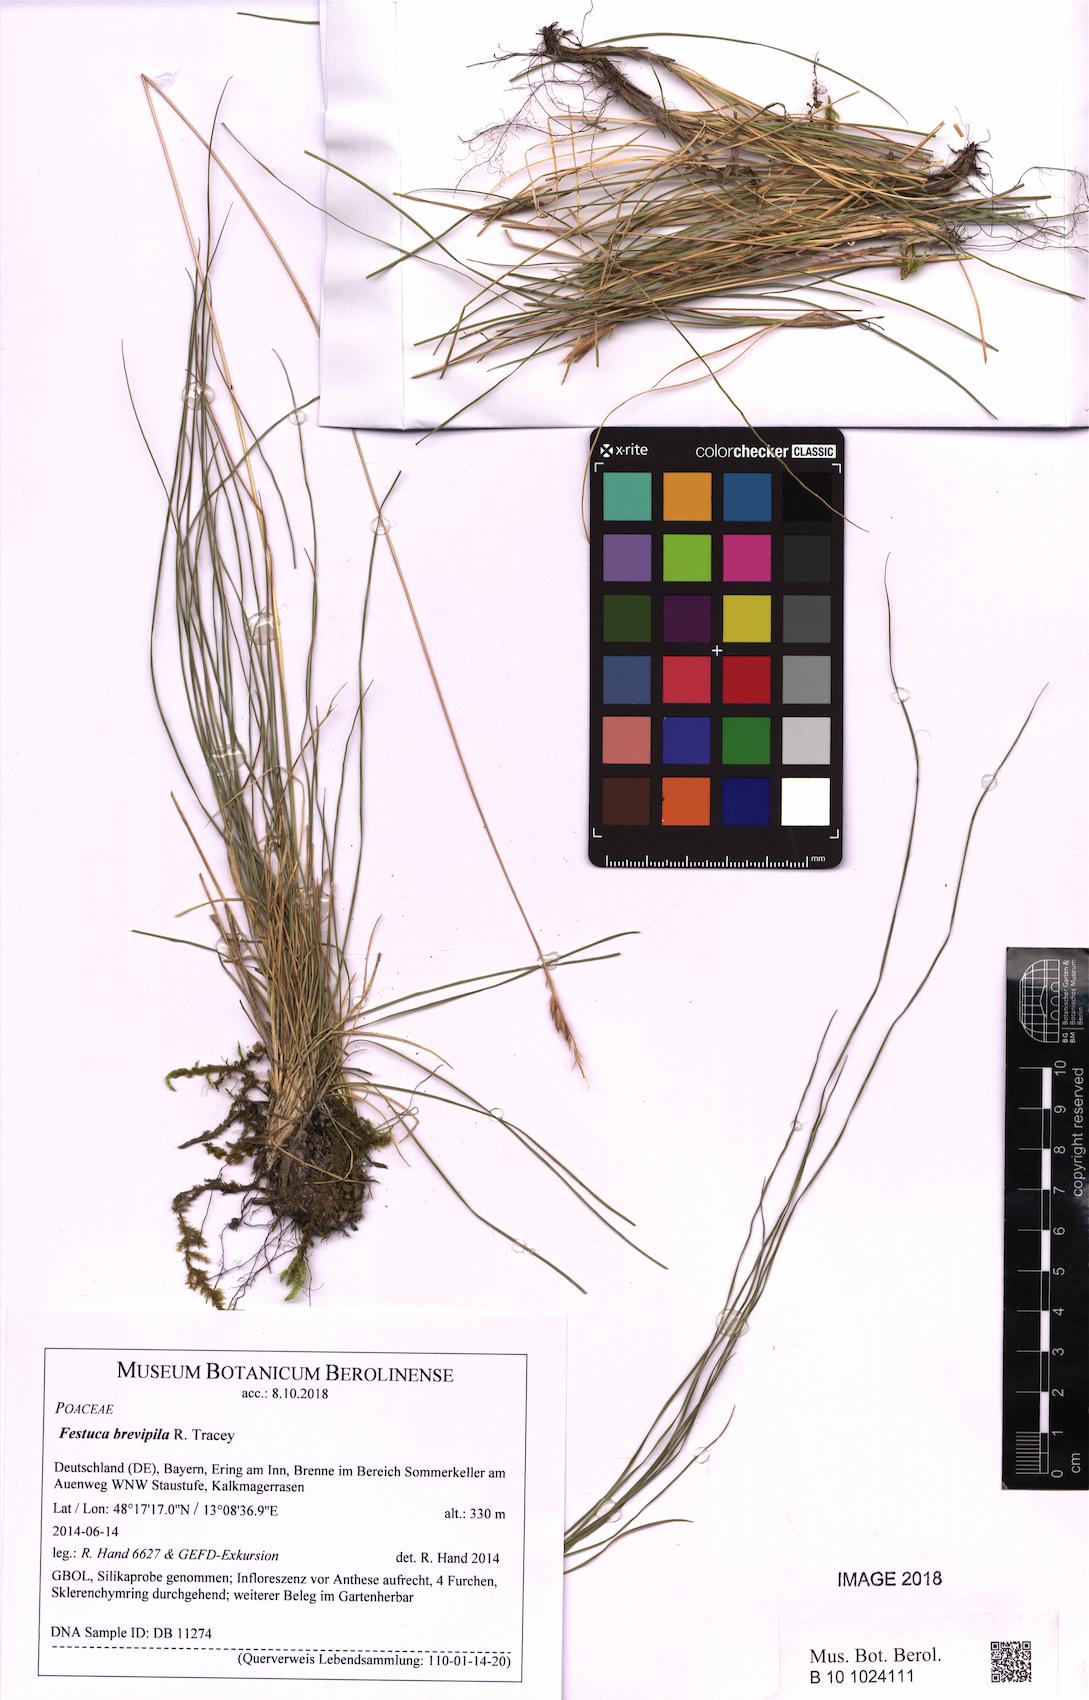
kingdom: Plantae
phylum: Tracheophyta
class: Liliopsida
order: Poales
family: Poaceae
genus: Festuca
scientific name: Festuca trachyphylla
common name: Hard fescue
